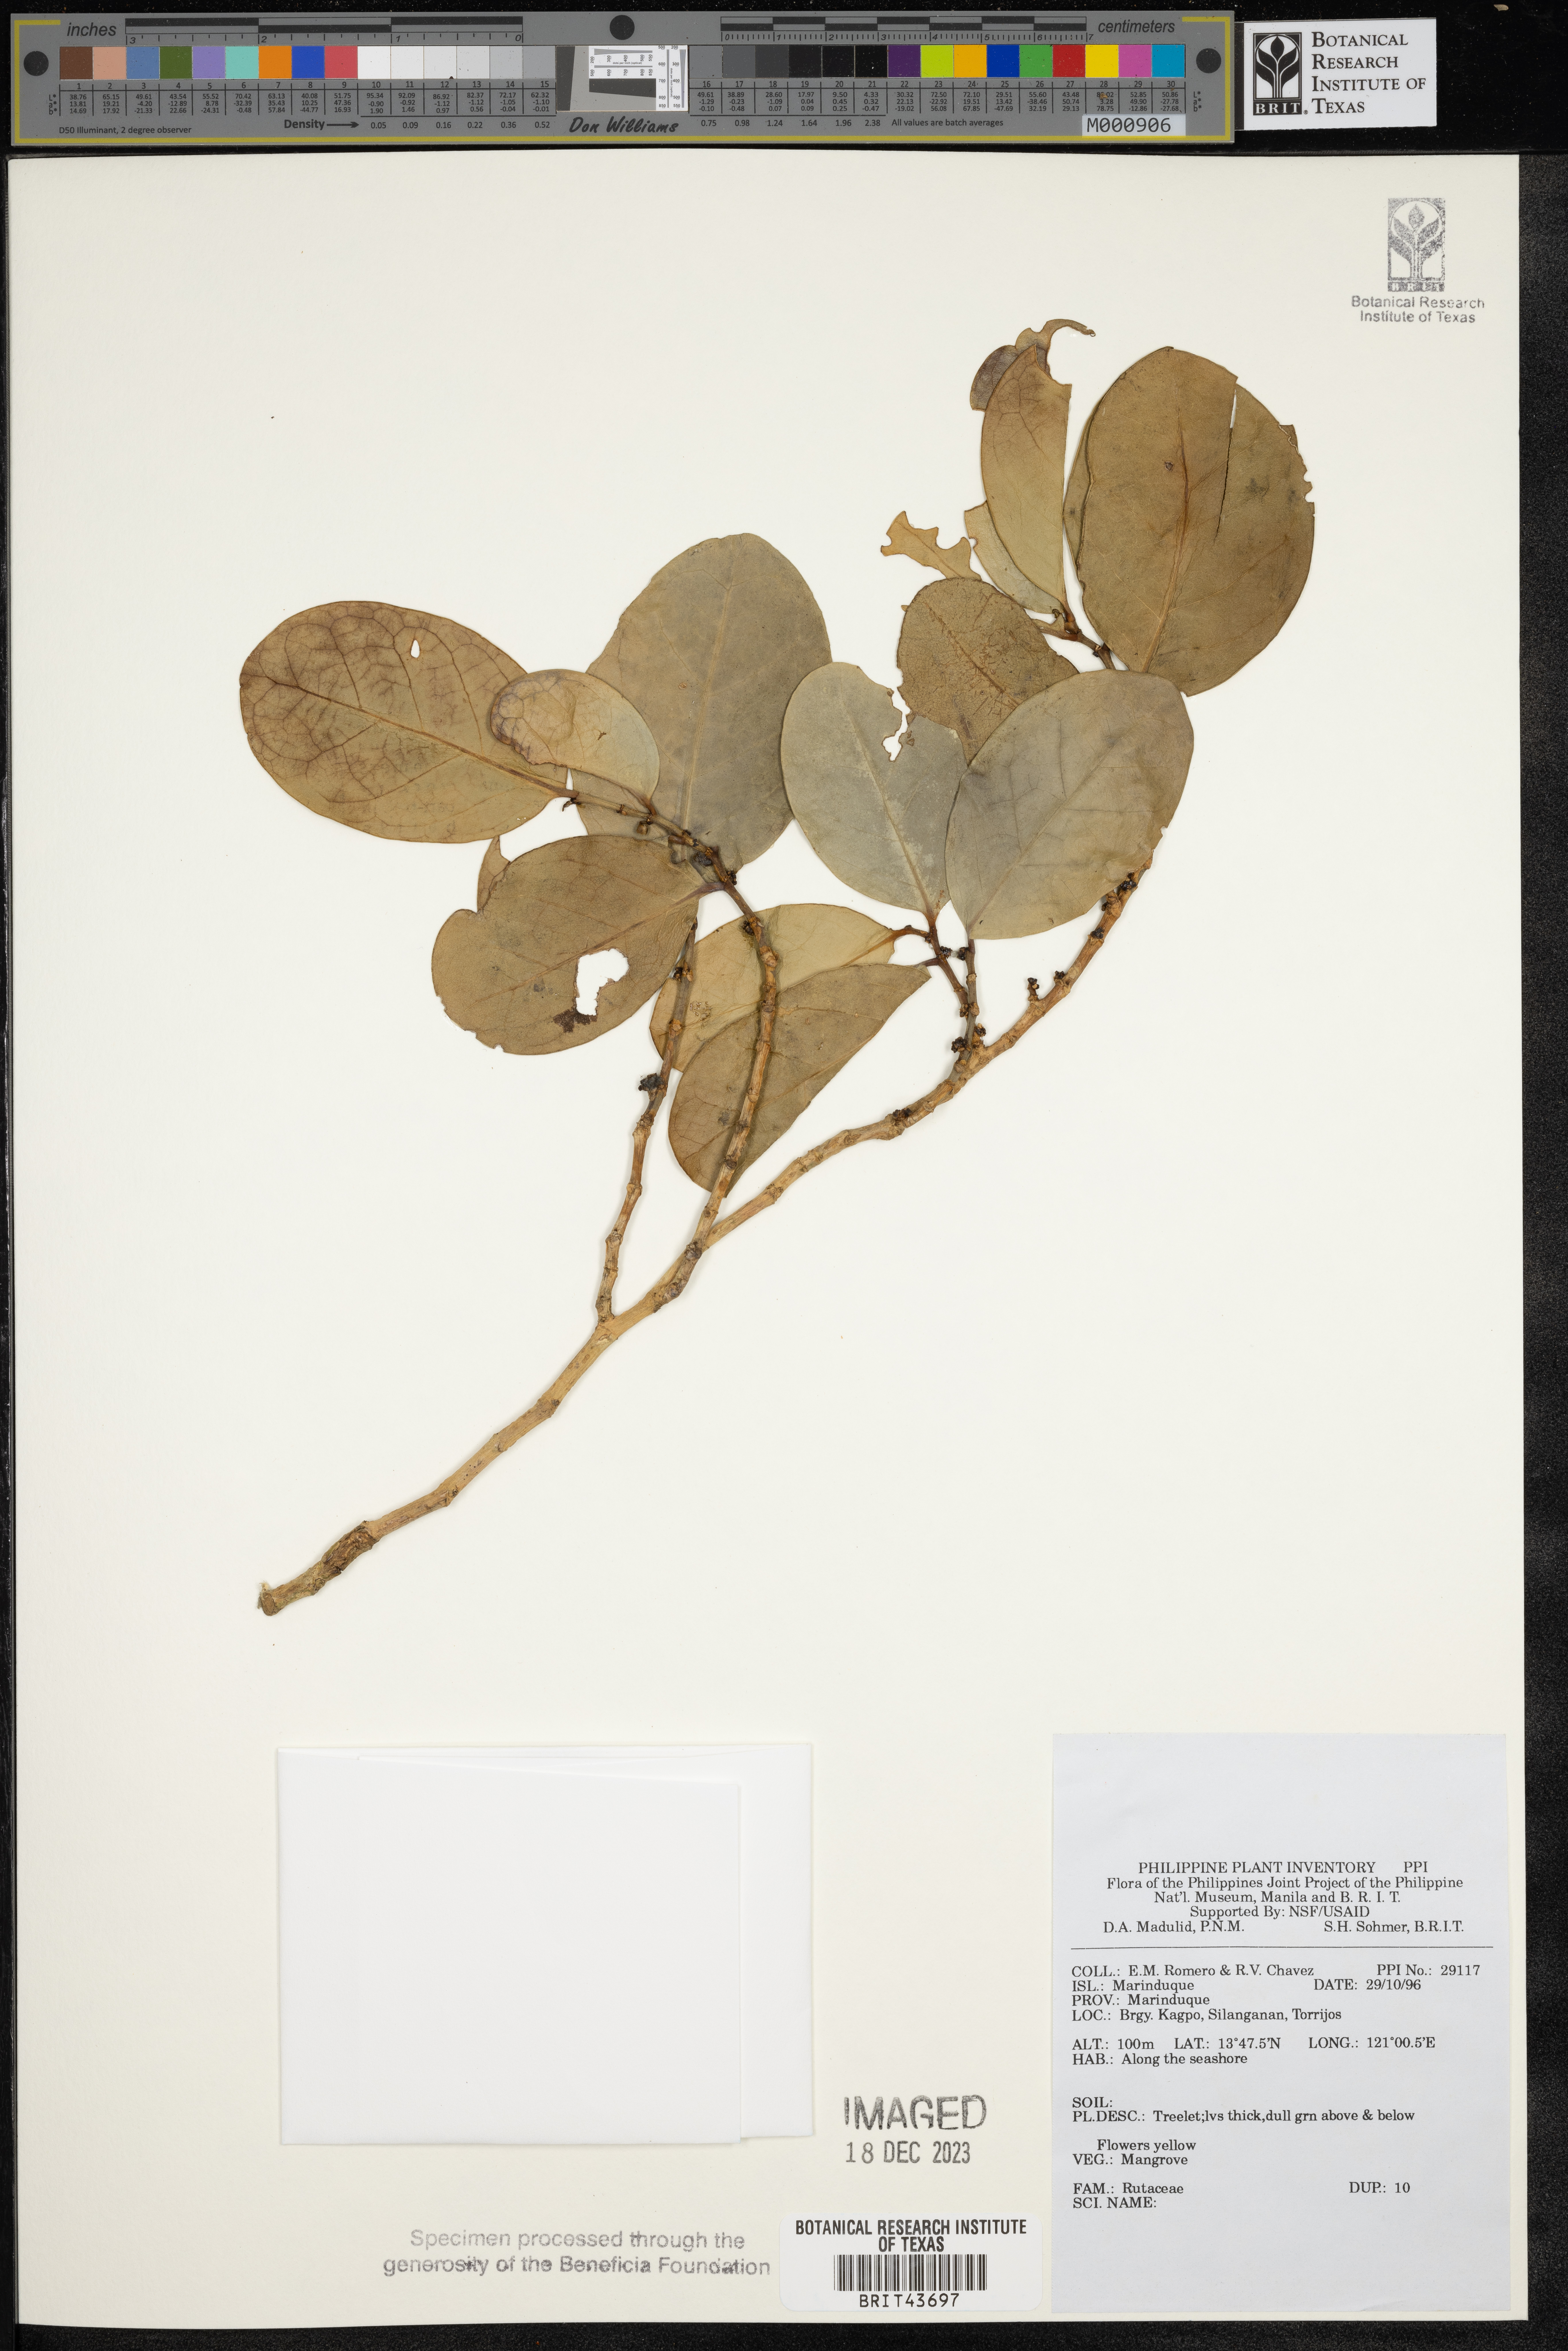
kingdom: Plantae
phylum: Tracheophyta
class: Magnoliopsida
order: Sapindales
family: Rutaceae
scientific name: Rutaceae
